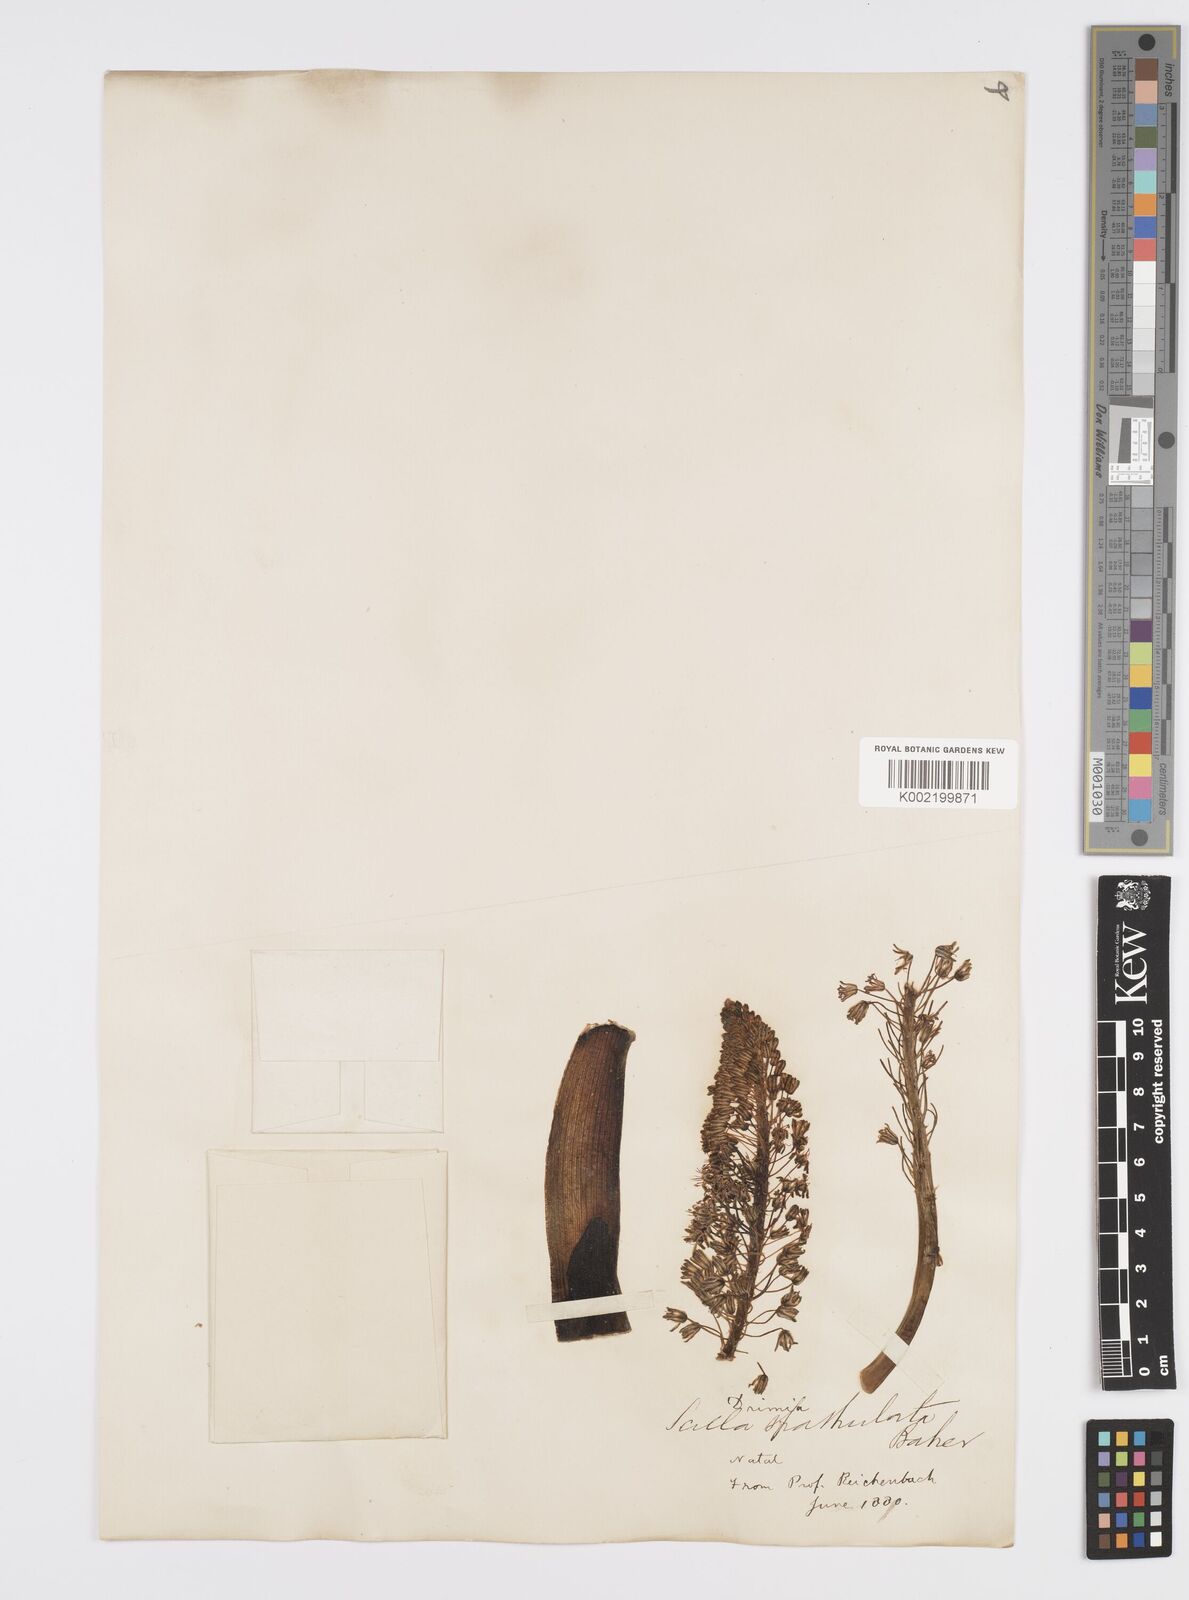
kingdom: Plantae
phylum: Tracheophyta
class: Liliopsida
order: Asparagales
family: Asparagaceae
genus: Ledebouria
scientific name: Ledebouria floribunda
